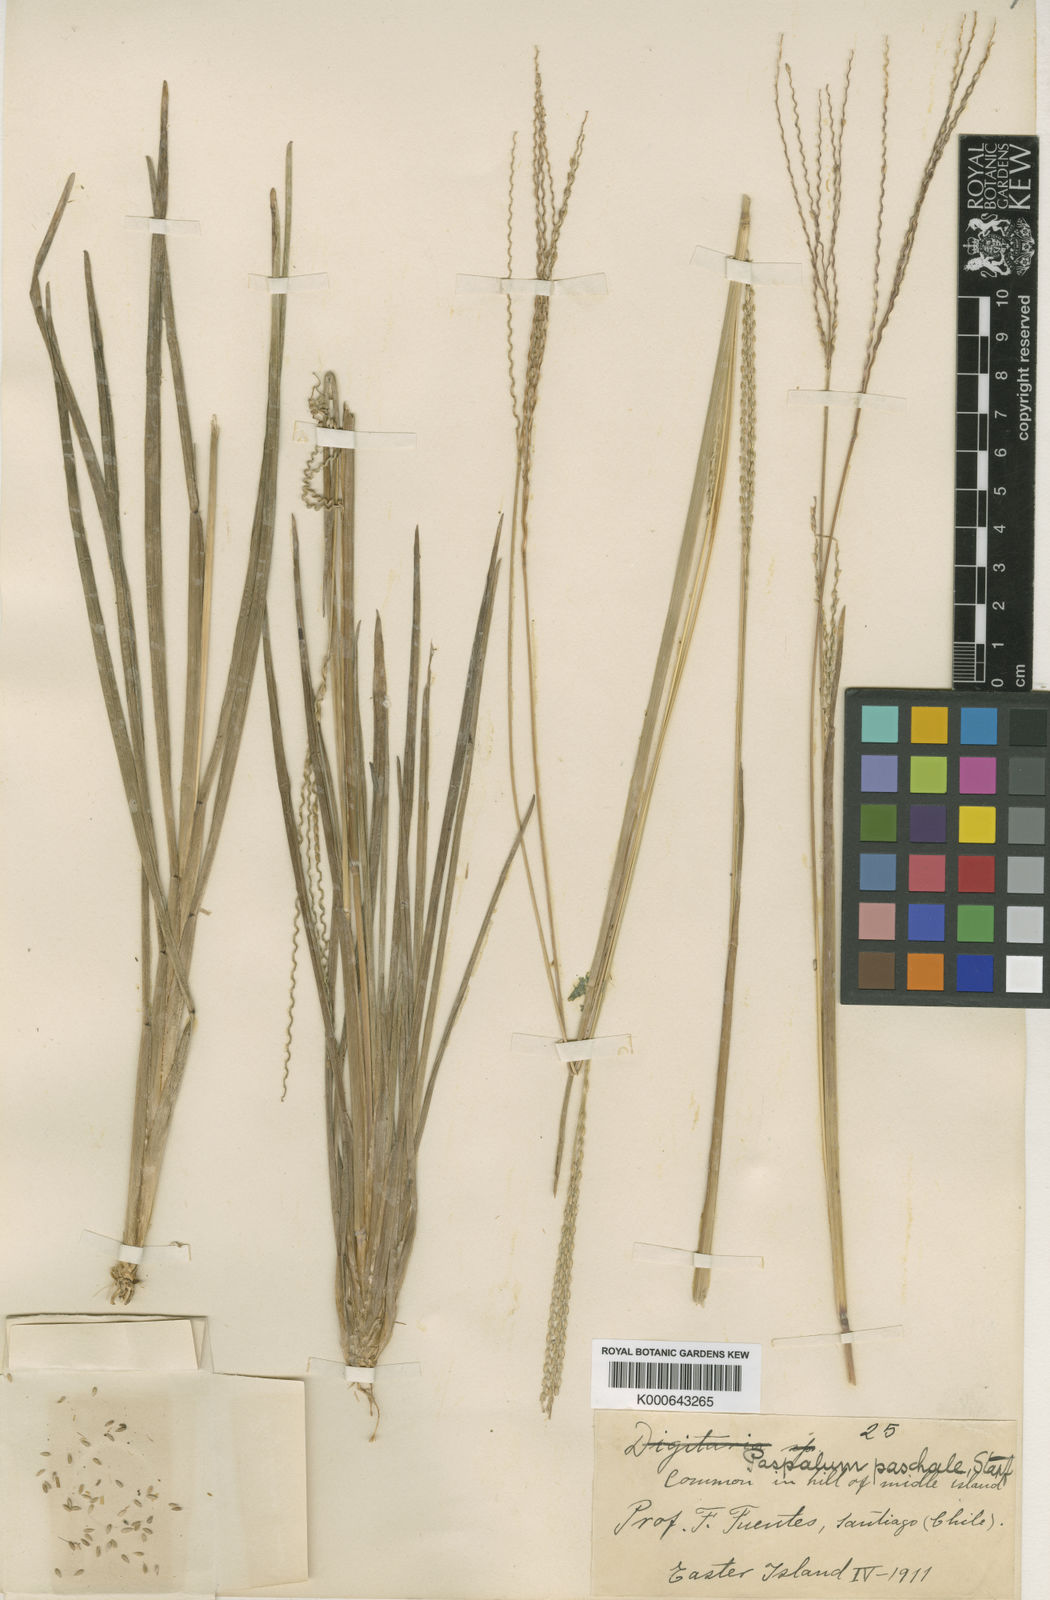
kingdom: Plantae
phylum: Tracheophyta
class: Liliopsida
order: Poales
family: Poaceae
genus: Axonopus
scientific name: Axonopus paschalis
